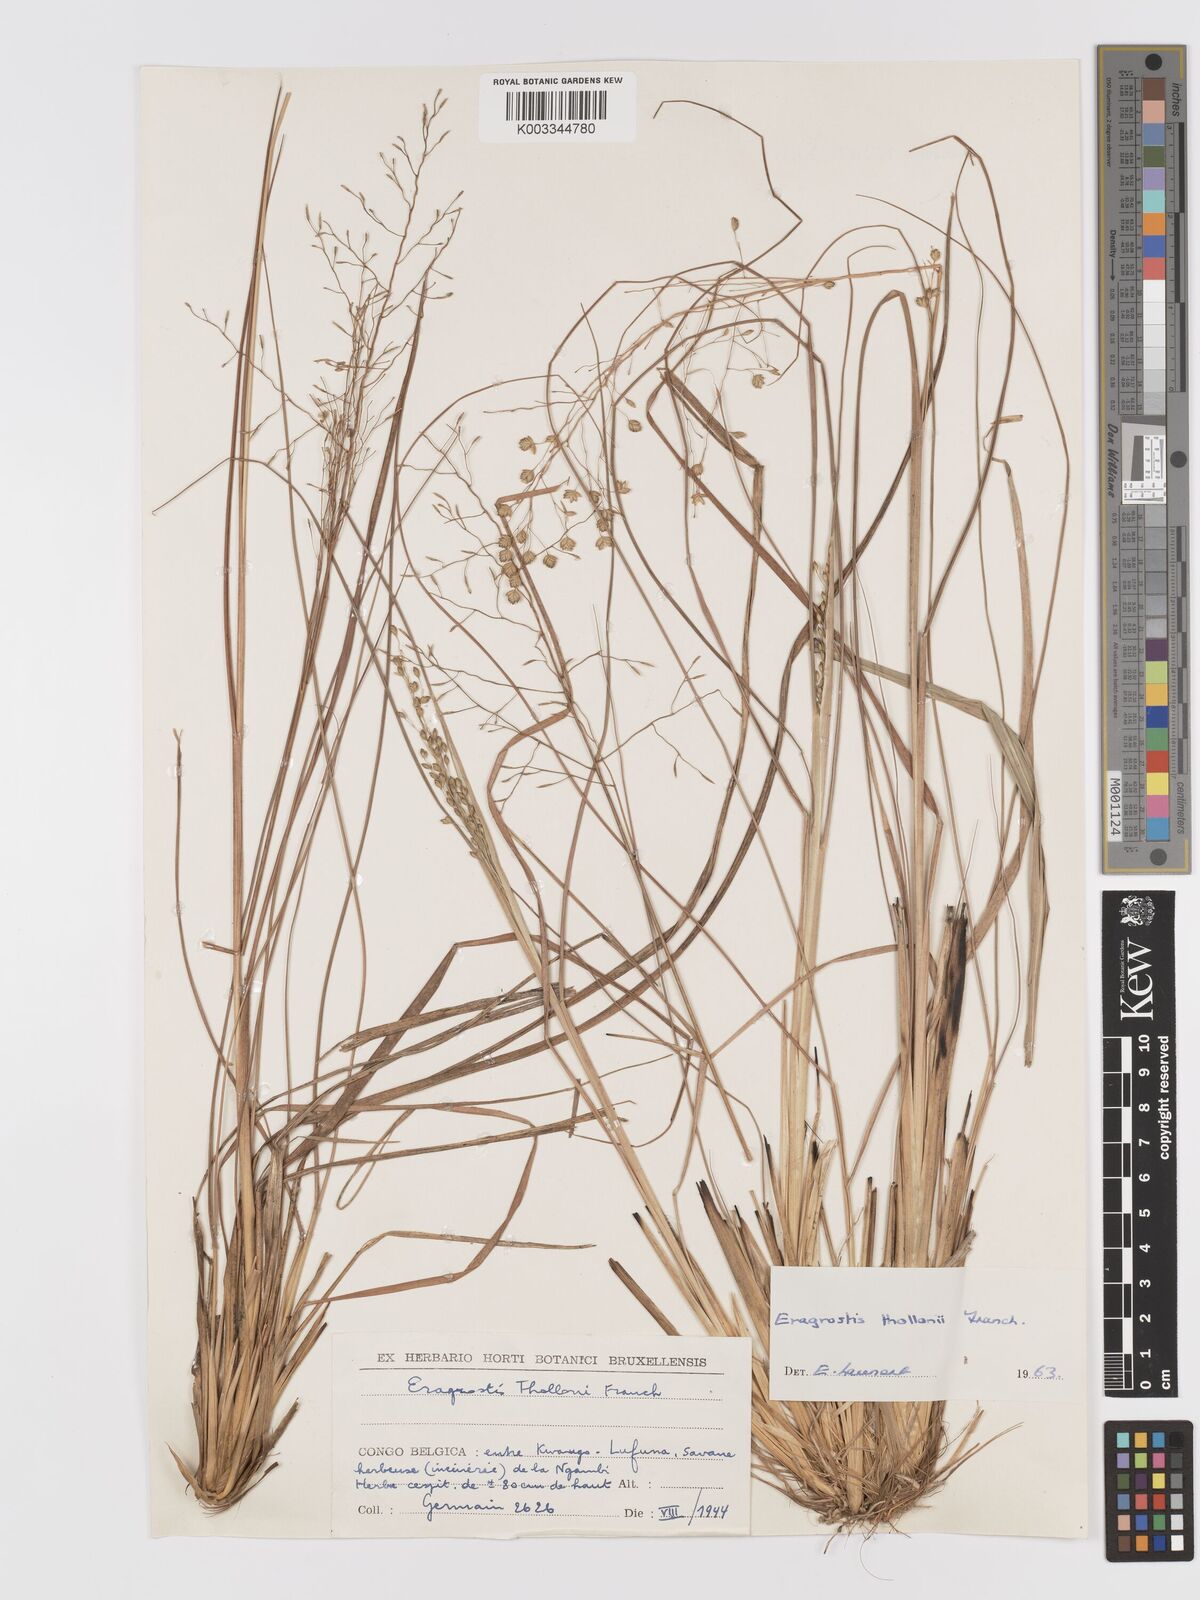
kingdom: Plantae
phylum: Tracheophyta
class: Liliopsida
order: Poales
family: Poaceae
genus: Eragrostis
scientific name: Eragrostis thollonii
